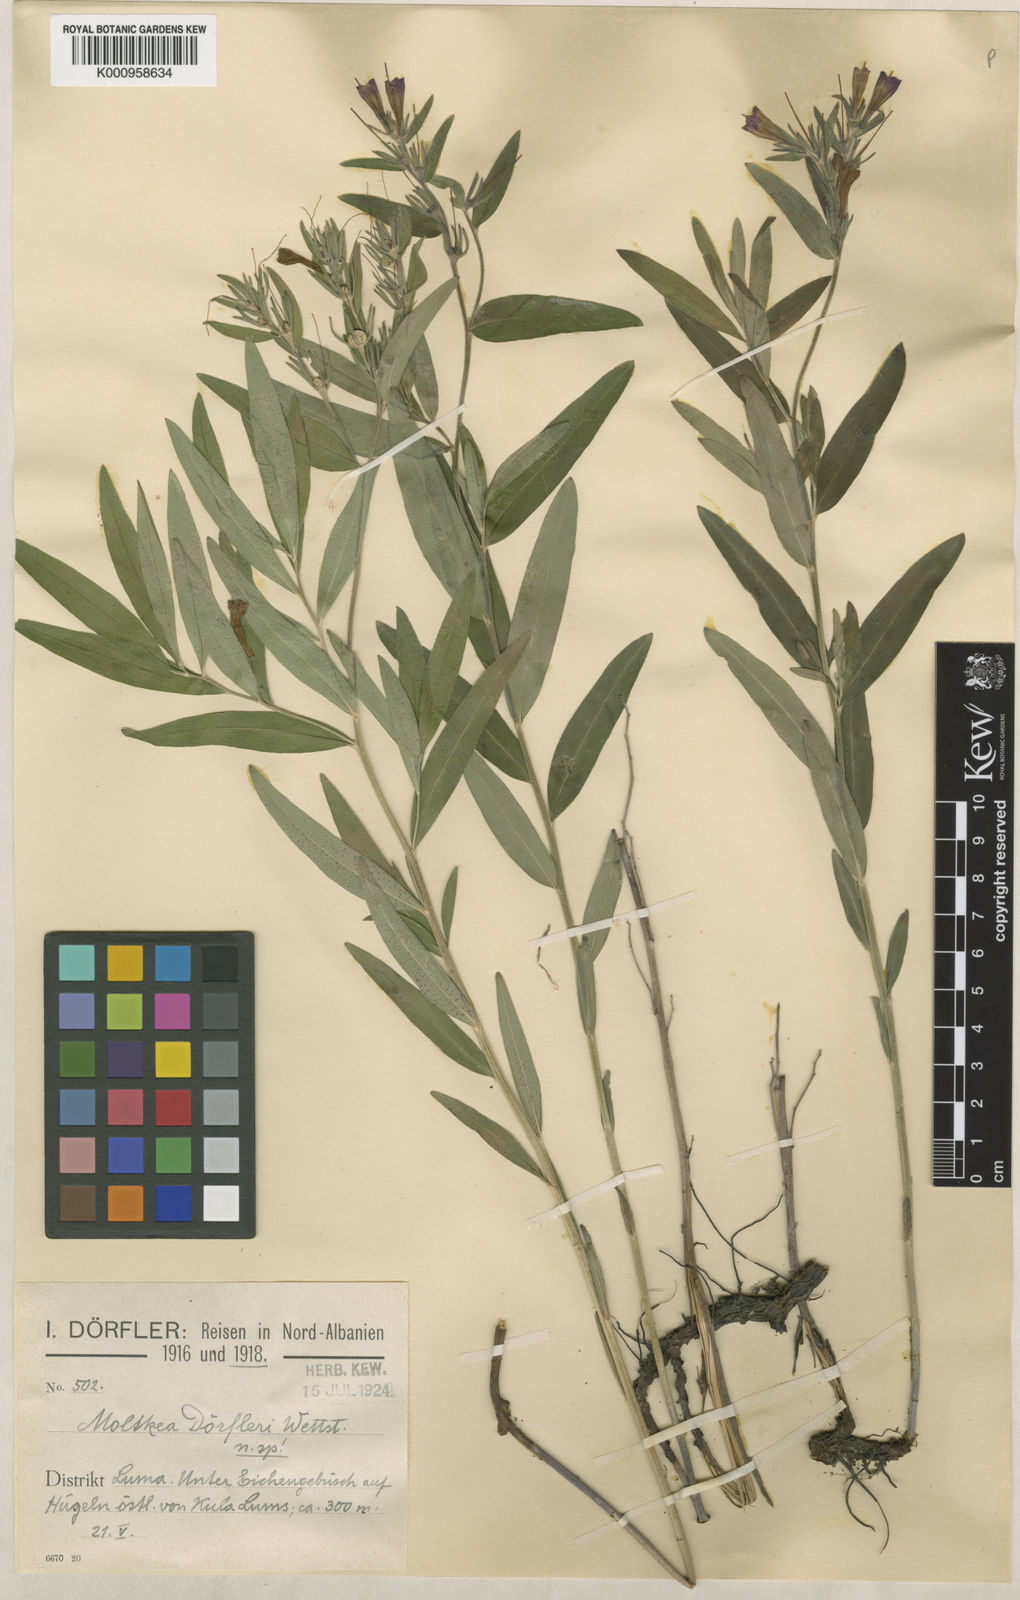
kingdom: Plantae
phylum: Tracheophyta
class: Magnoliopsida
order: Boraginales
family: Boraginaceae
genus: Paramoltkia
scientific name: Paramoltkia doerfleri
